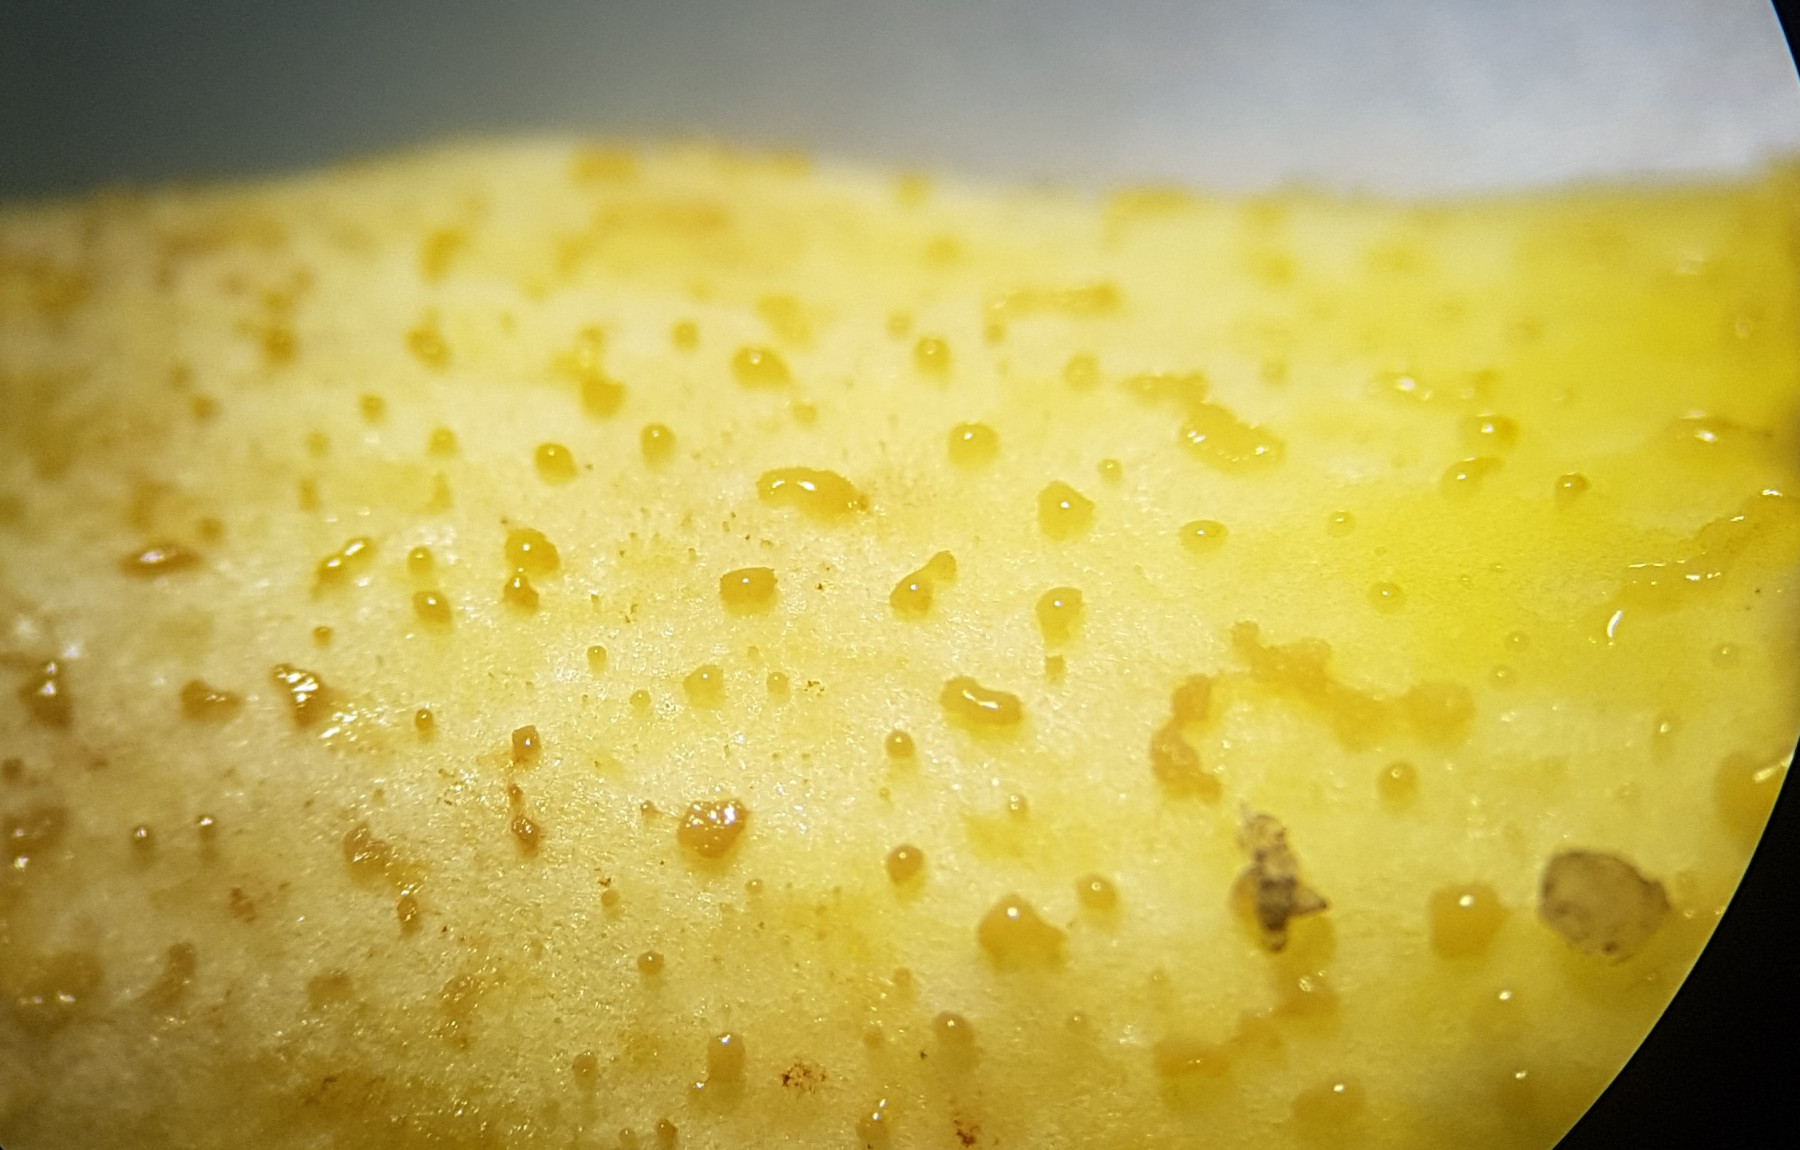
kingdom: Fungi
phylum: Basidiomycota
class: Agaricomycetes
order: Boletales
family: Suillaceae
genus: Suillus
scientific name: Suillus granulatus
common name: kornet slimrørhat
